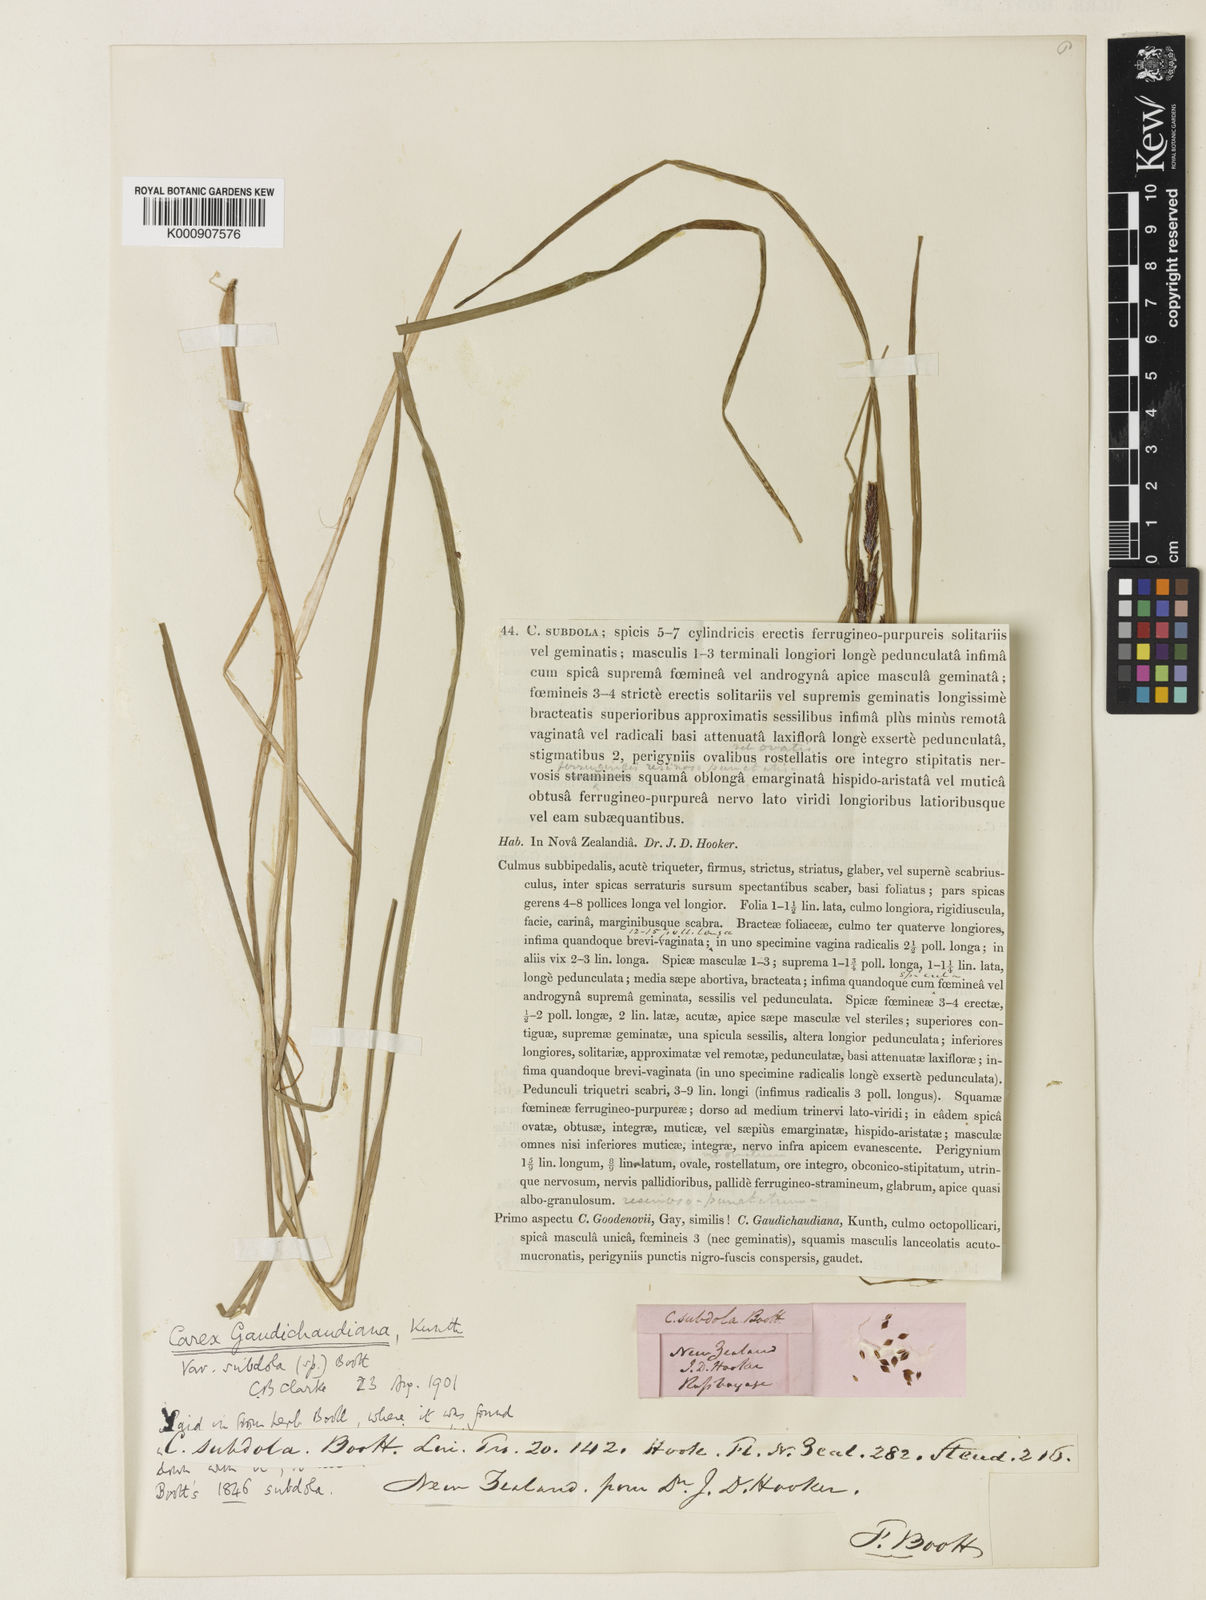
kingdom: Plantae
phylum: Tracheophyta
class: Liliopsida
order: Poales
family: Cyperaceae
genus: Carex
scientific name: Carex subdola
